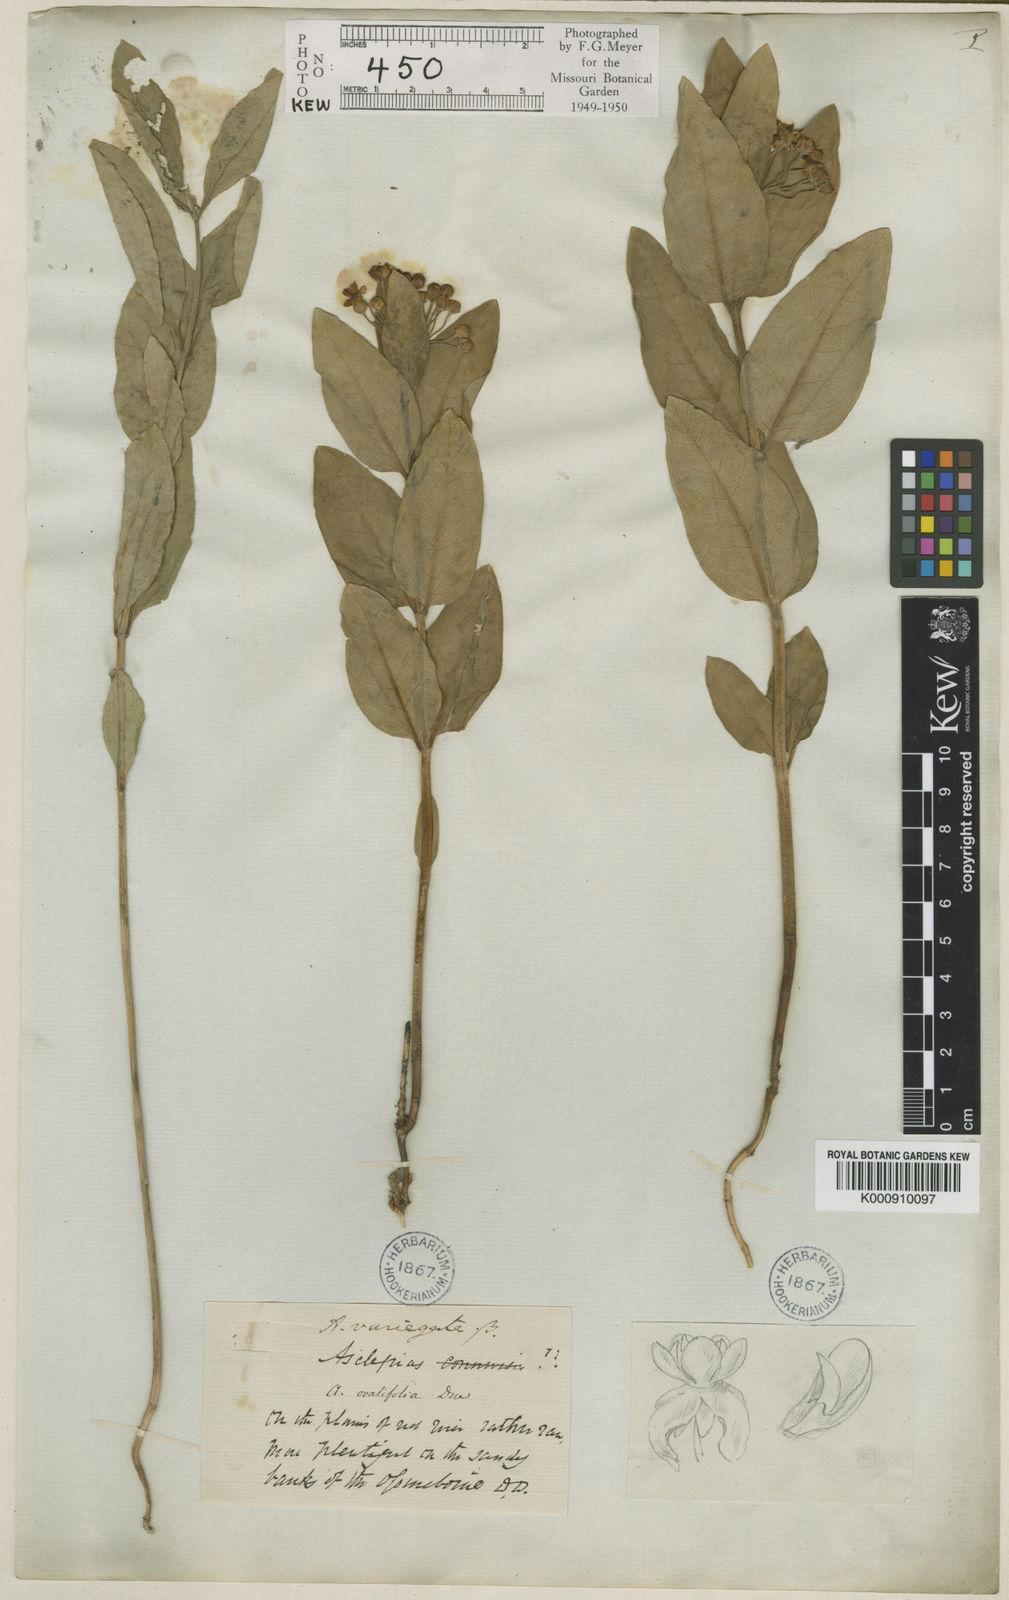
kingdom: Plantae
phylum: Tracheophyta
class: Magnoliopsida
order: Gentianales
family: Apocynaceae
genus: Asclepias
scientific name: Asclepias
